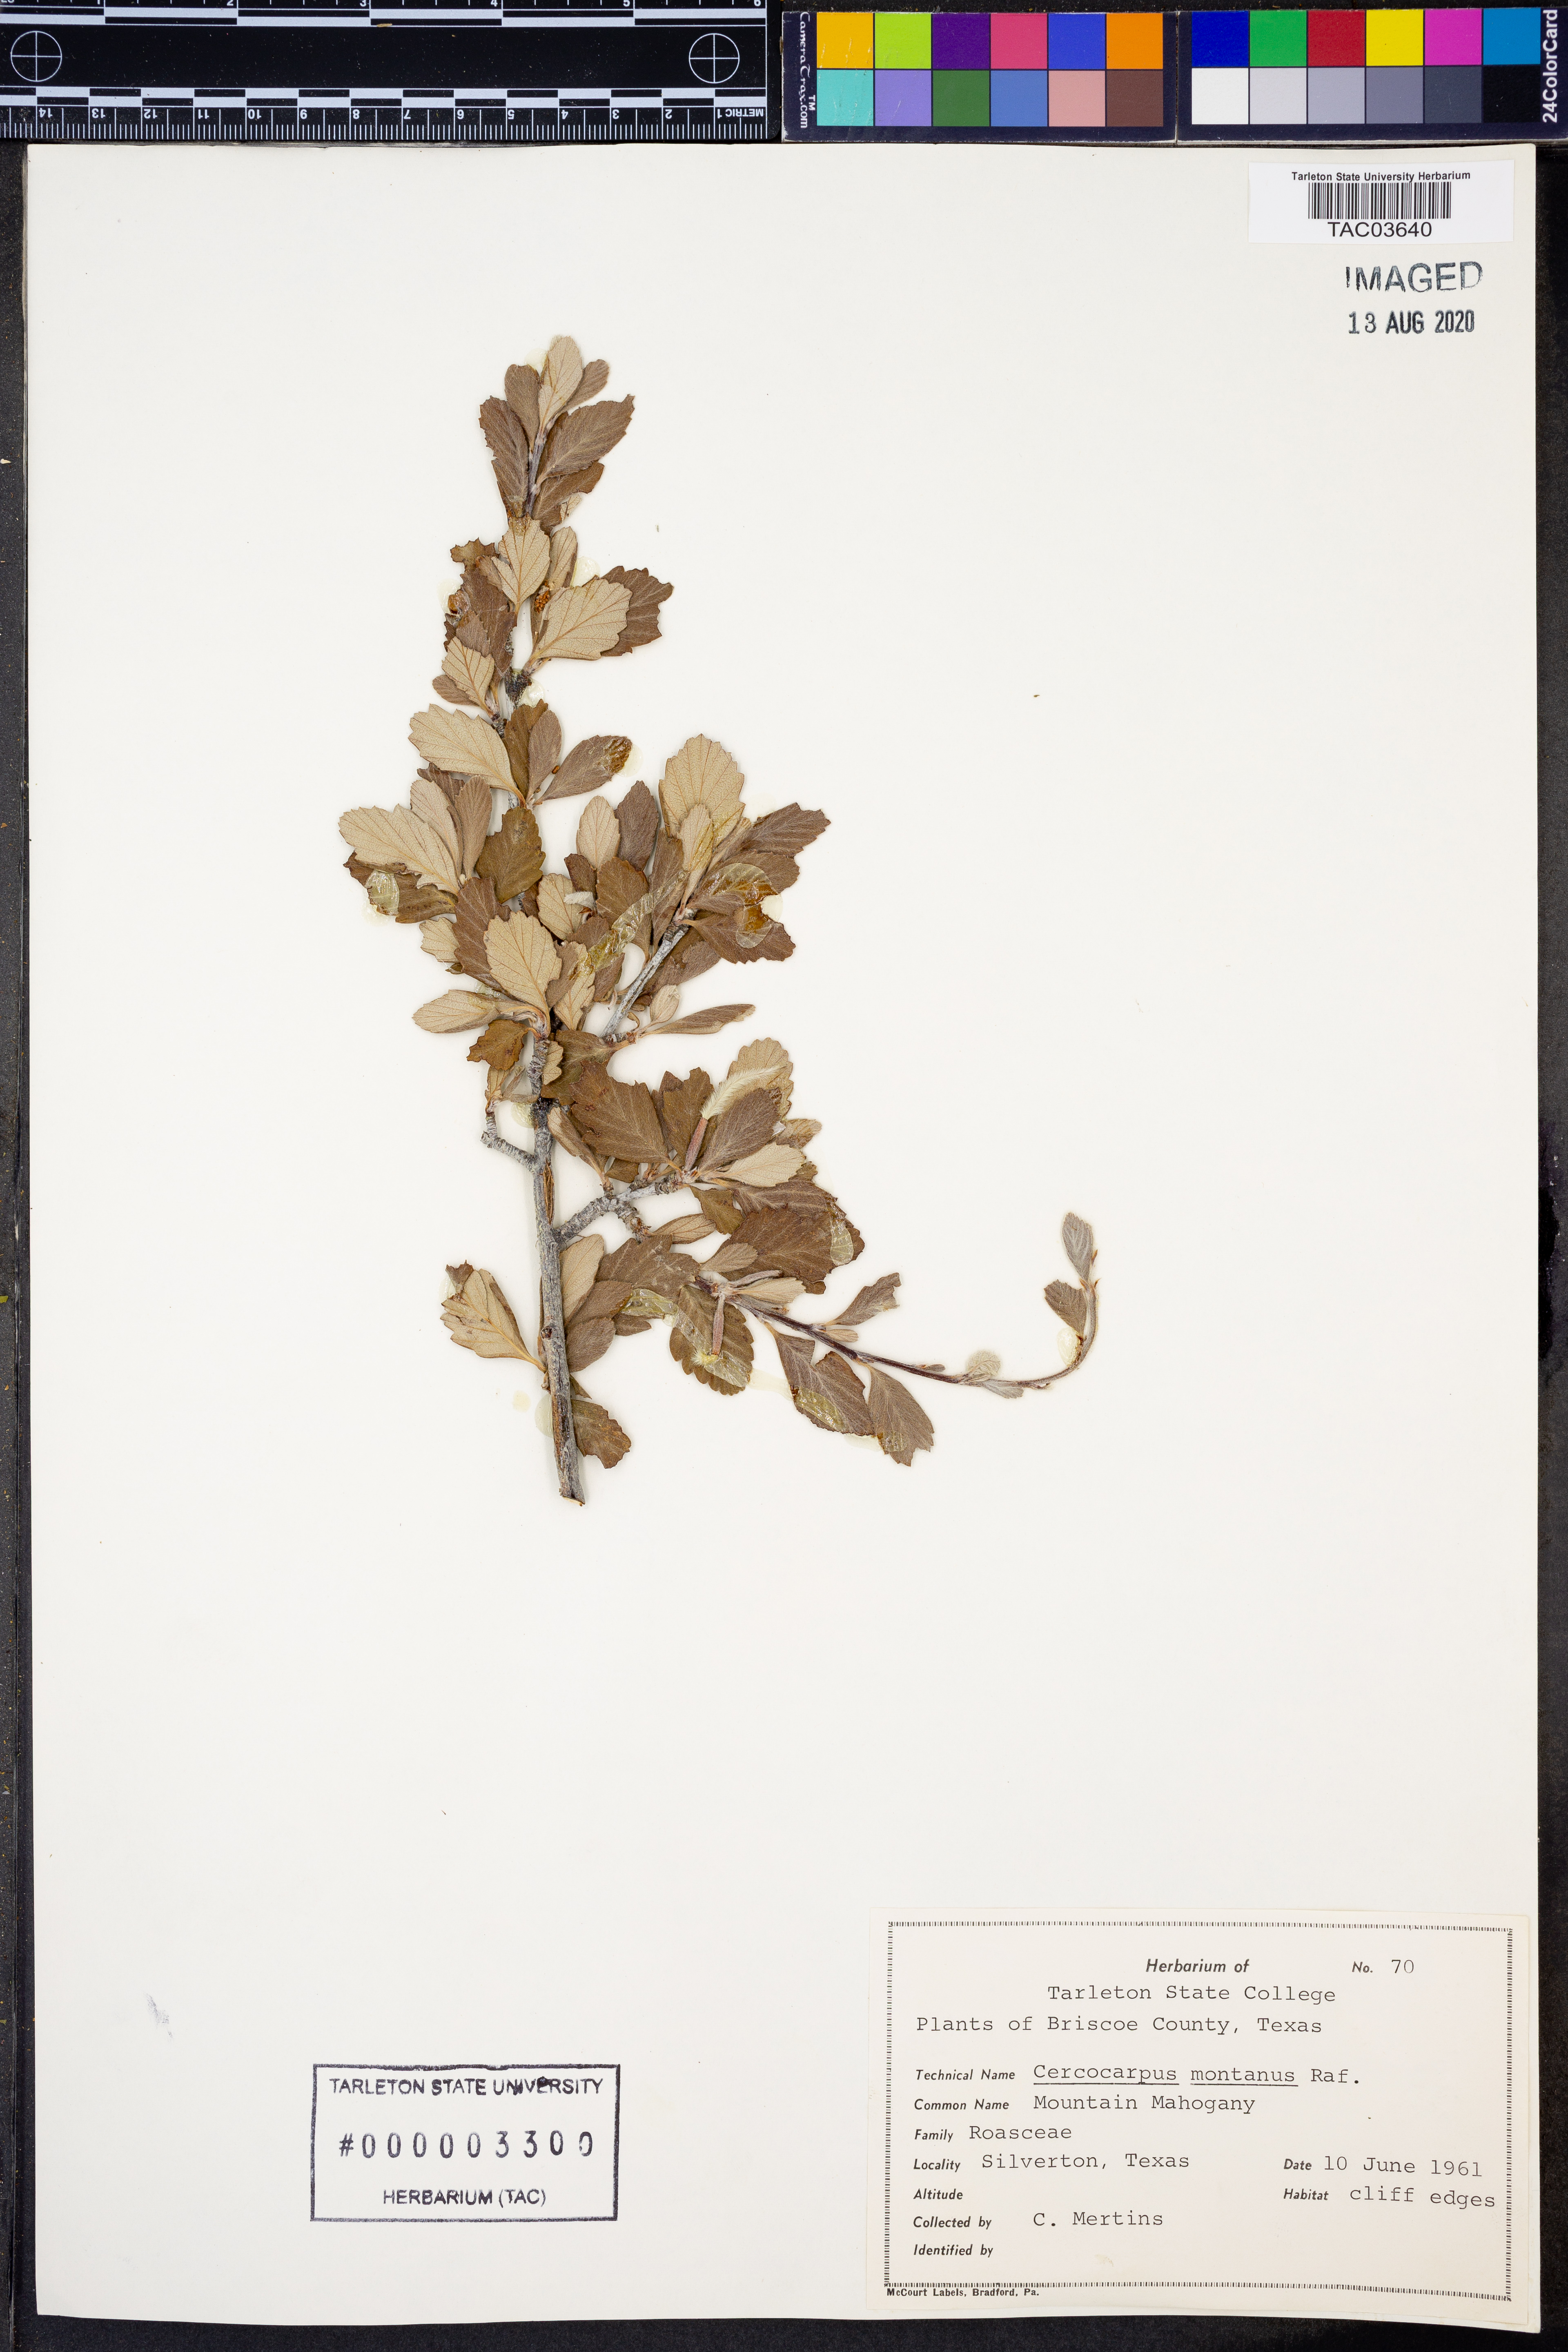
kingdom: Plantae
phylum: Tracheophyta
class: Magnoliopsida
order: Rosales
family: Rosaceae
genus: Cercocarpus
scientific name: Cercocarpus montanus
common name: Alder-leaf cercocarpus
